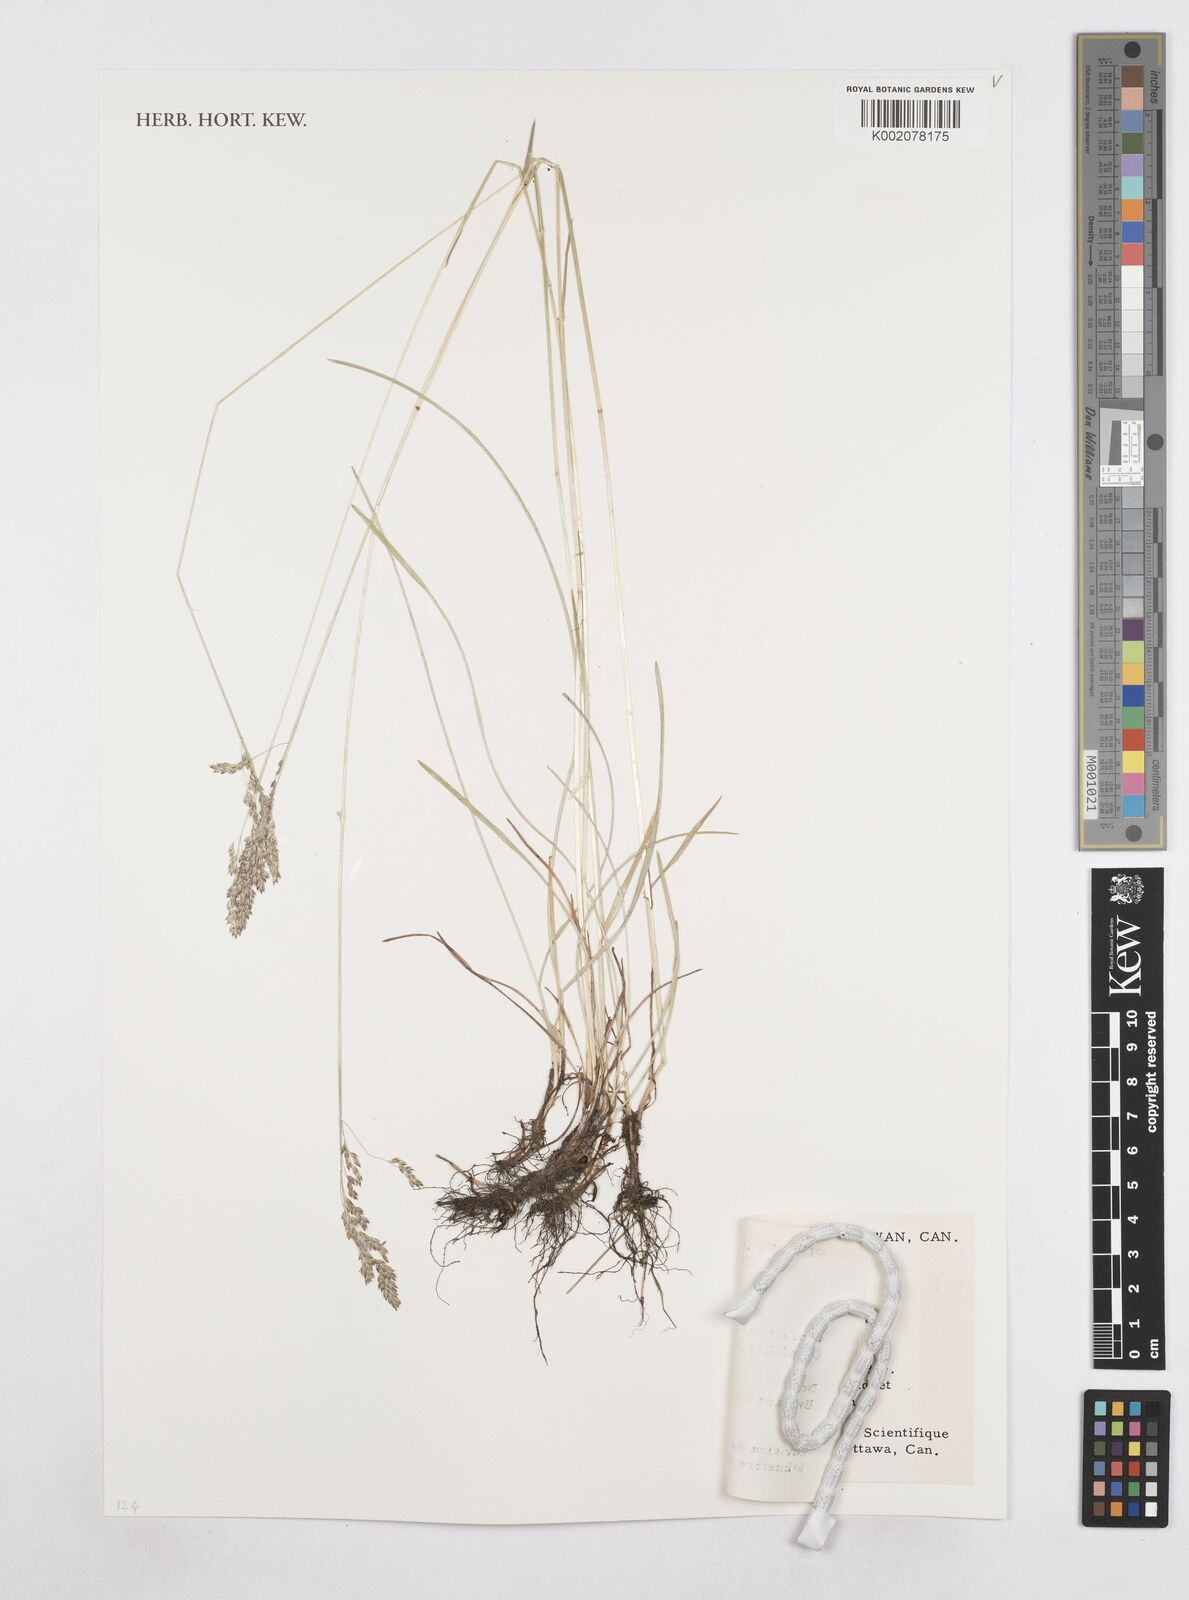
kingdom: Plantae
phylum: Tracheophyta
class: Liliopsida
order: Poales
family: Poaceae
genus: Poa
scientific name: Poa
